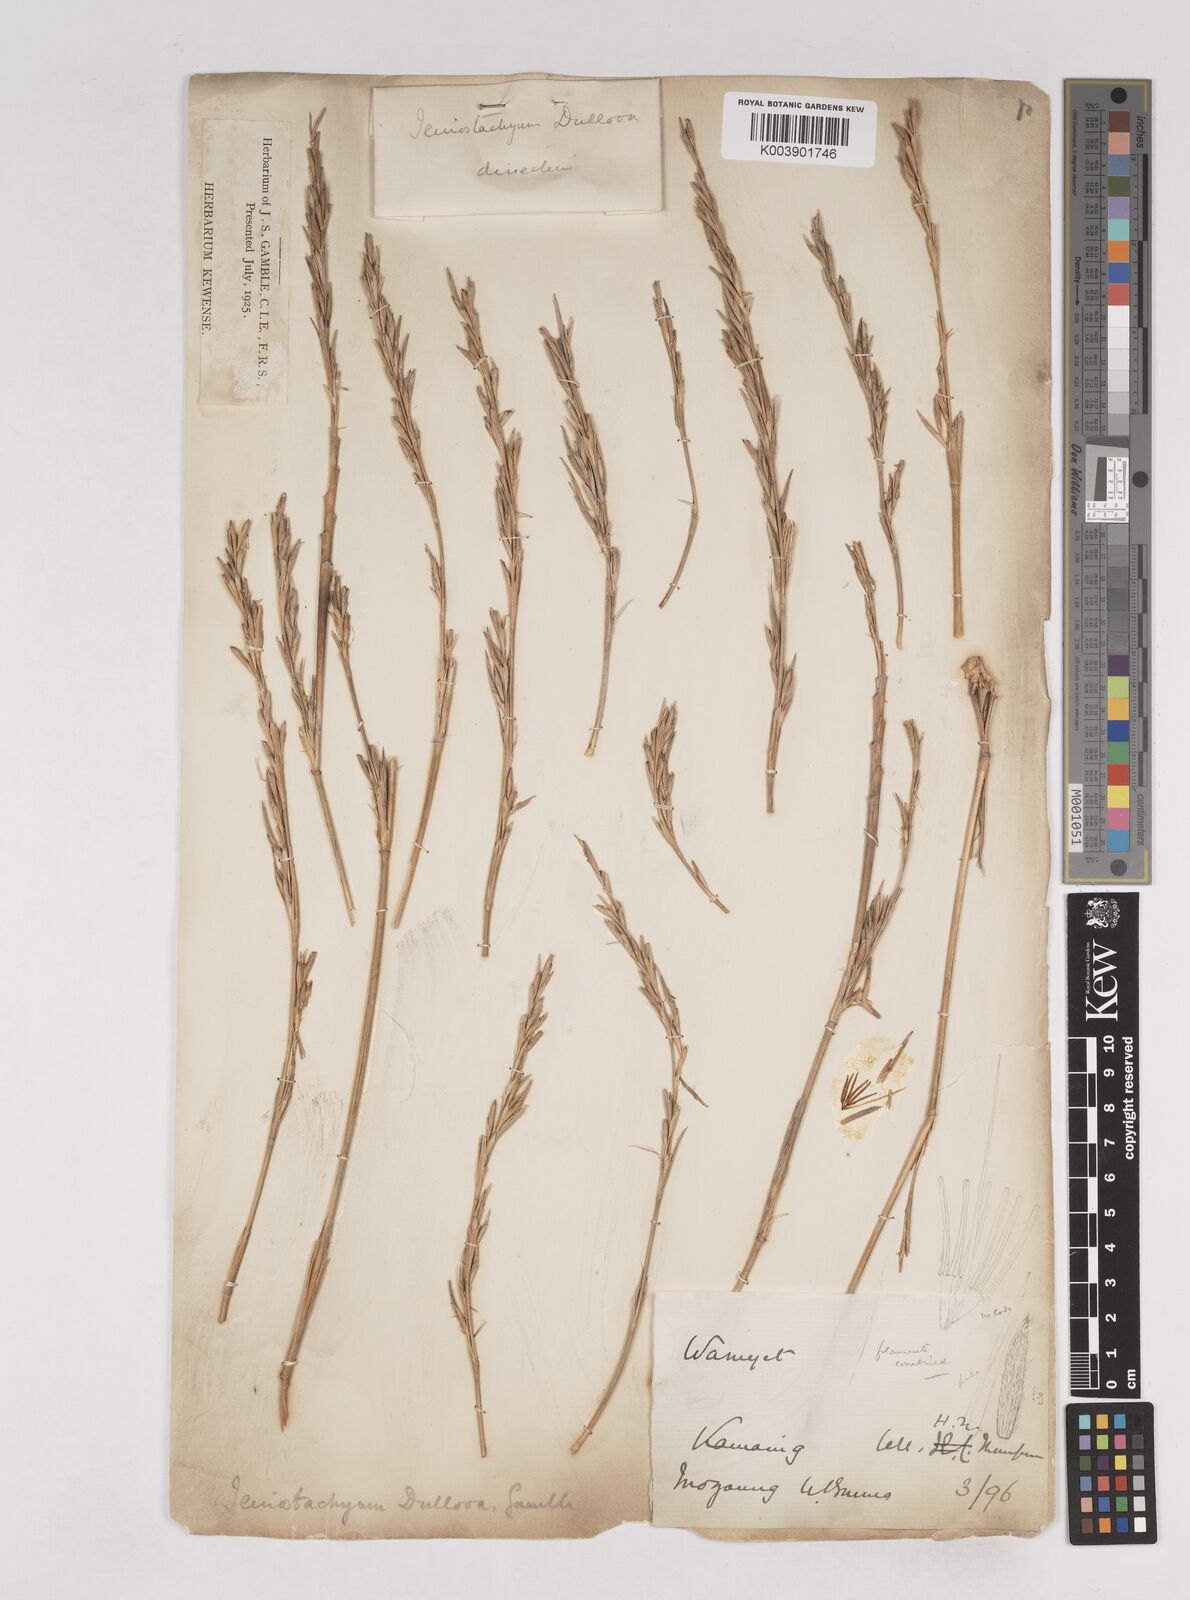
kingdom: Plantae
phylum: Tracheophyta
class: Liliopsida
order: Poales
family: Poaceae
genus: Schizostachyum
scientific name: Schizostachyum dullooa
